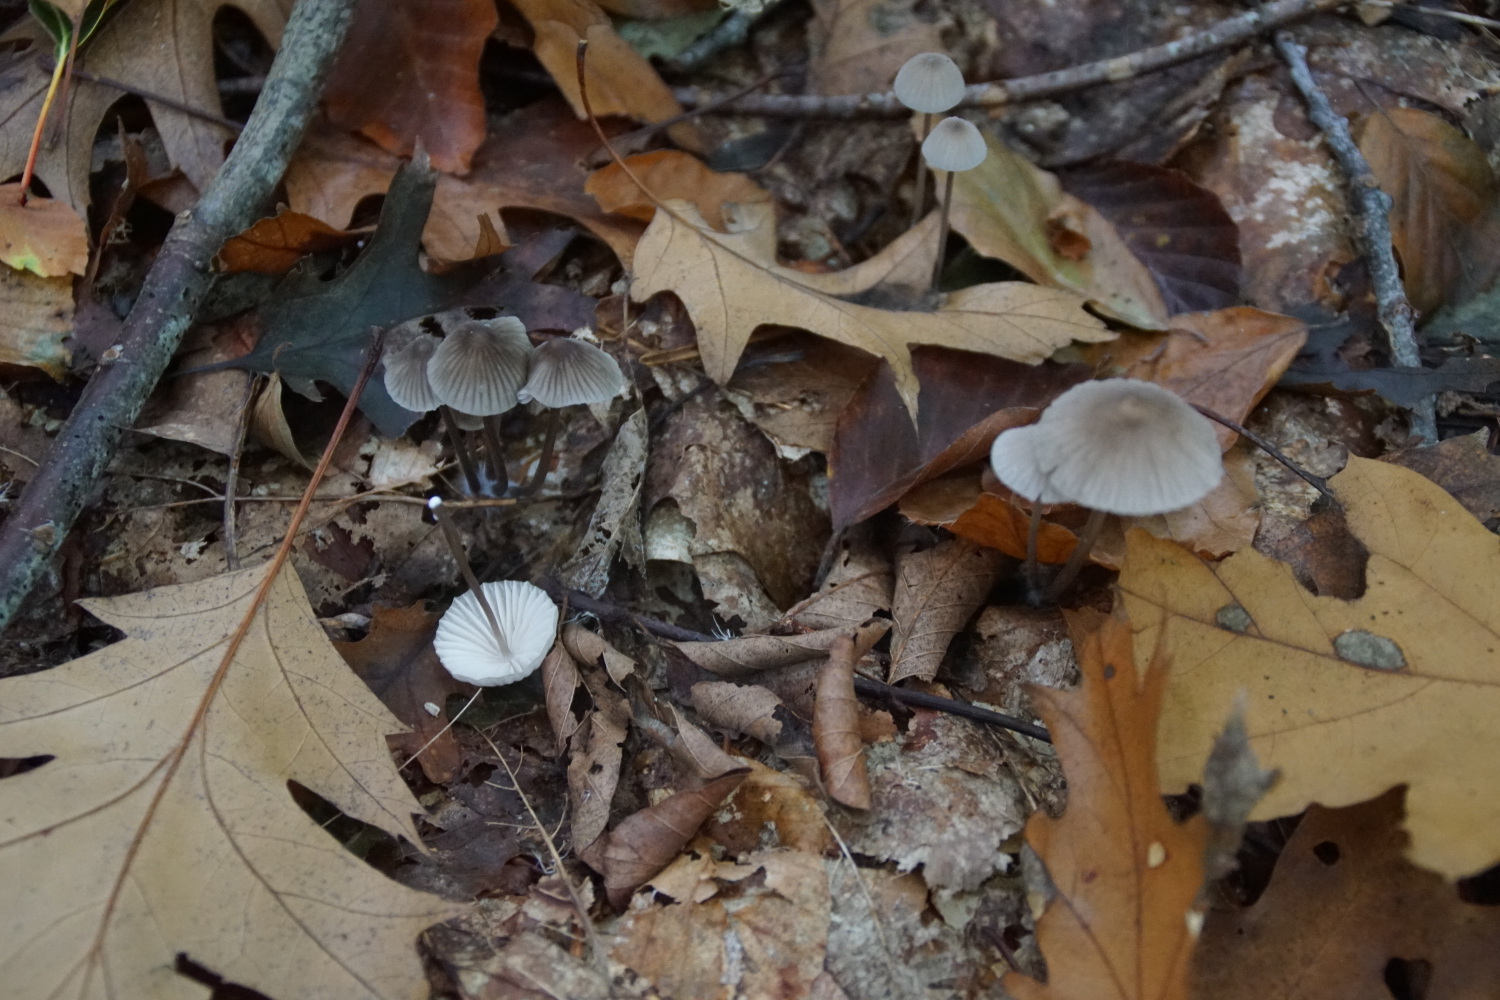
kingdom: Fungi
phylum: Basidiomycota
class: Agaricomycetes
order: Agaricales
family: Mycenaceae
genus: Mycena
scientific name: Mycena galopus
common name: hvidmælket huesvamp
